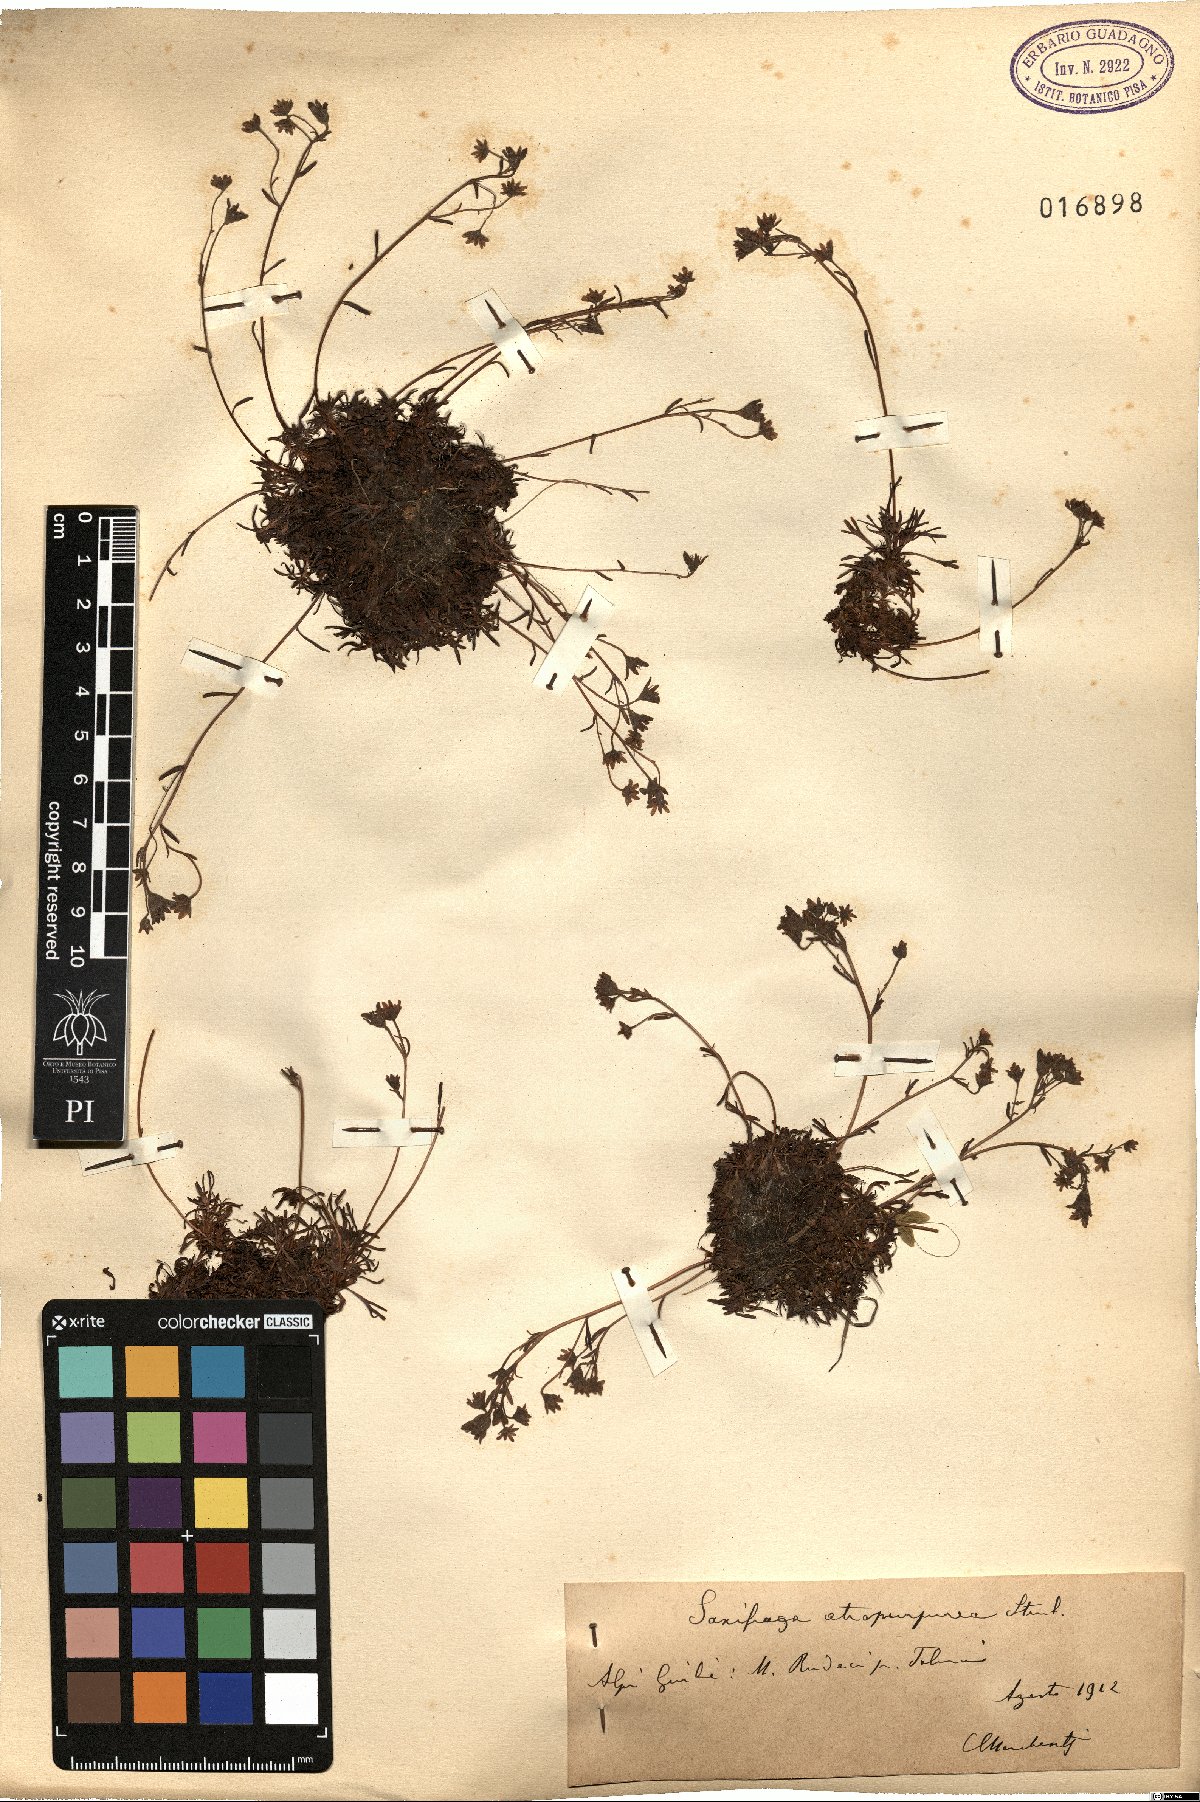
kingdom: Plantae
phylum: Tracheophyta
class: Magnoliopsida
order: Saxifragales
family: Saxifragaceae
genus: Saxifraga
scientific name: Saxifraga exarata
